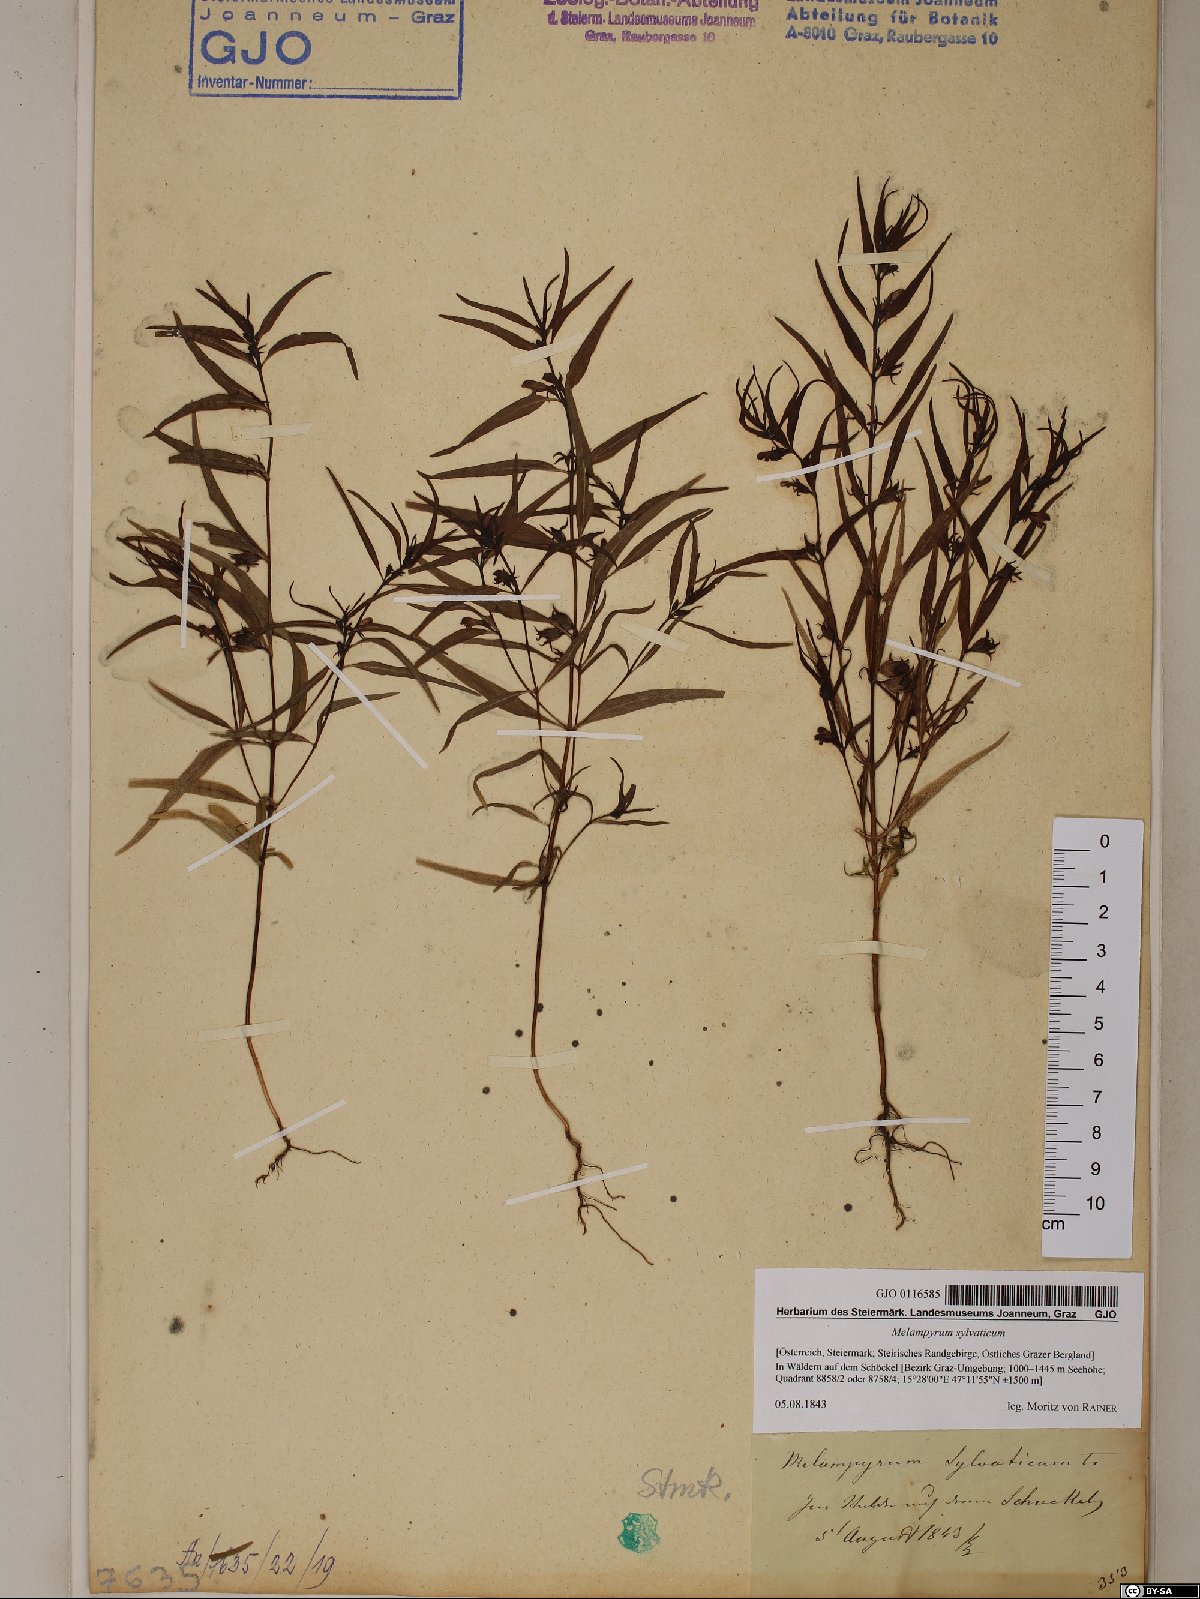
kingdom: Plantae
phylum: Tracheophyta
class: Magnoliopsida
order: Lamiales
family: Orobanchaceae
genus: Melampyrum
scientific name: Melampyrum sylvaticum
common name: Small cow-wheat
